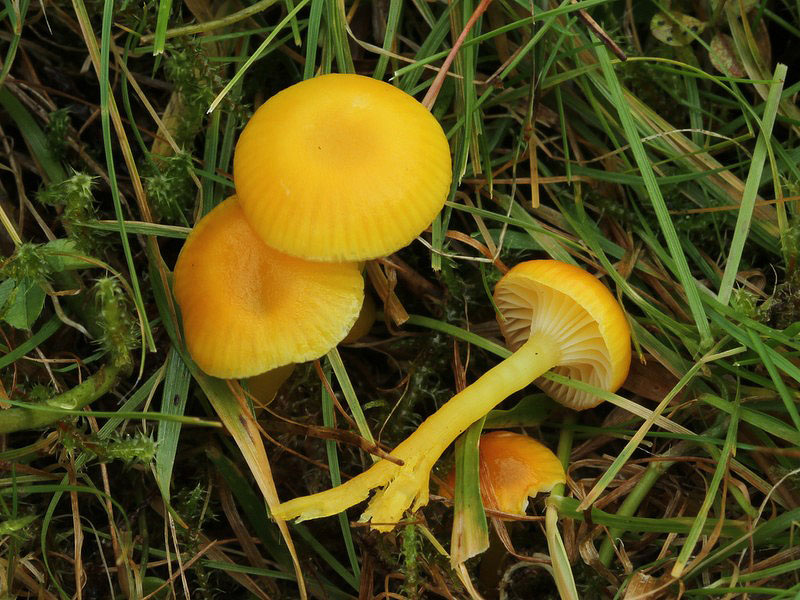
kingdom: Fungi
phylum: Basidiomycota
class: Agaricomycetes
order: Agaricales
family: Hygrophoraceae
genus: Hygrocybe
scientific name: Hygrocybe ceracea
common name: voksgul vokshat
